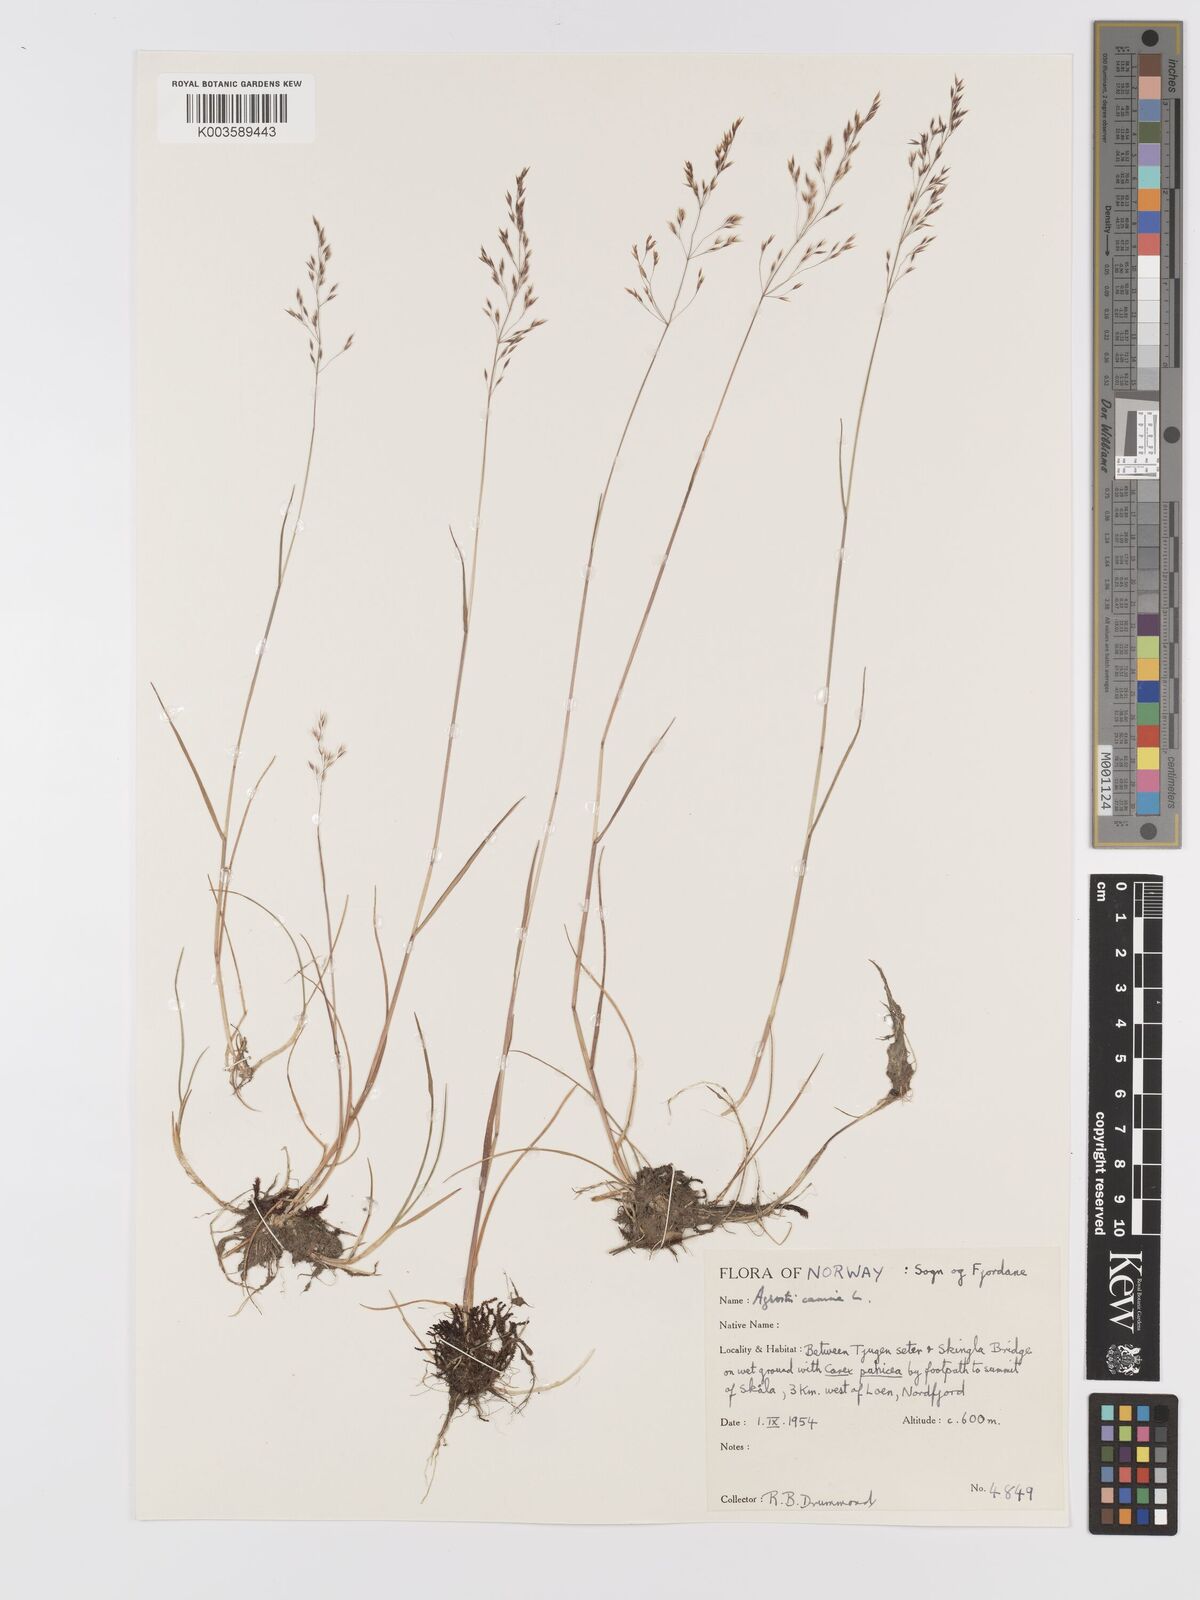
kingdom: Plantae
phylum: Tracheophyta
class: Liliopsida
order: Poales
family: Poaceae
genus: Agrostis
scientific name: Agrostis canina
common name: Velvet bent
